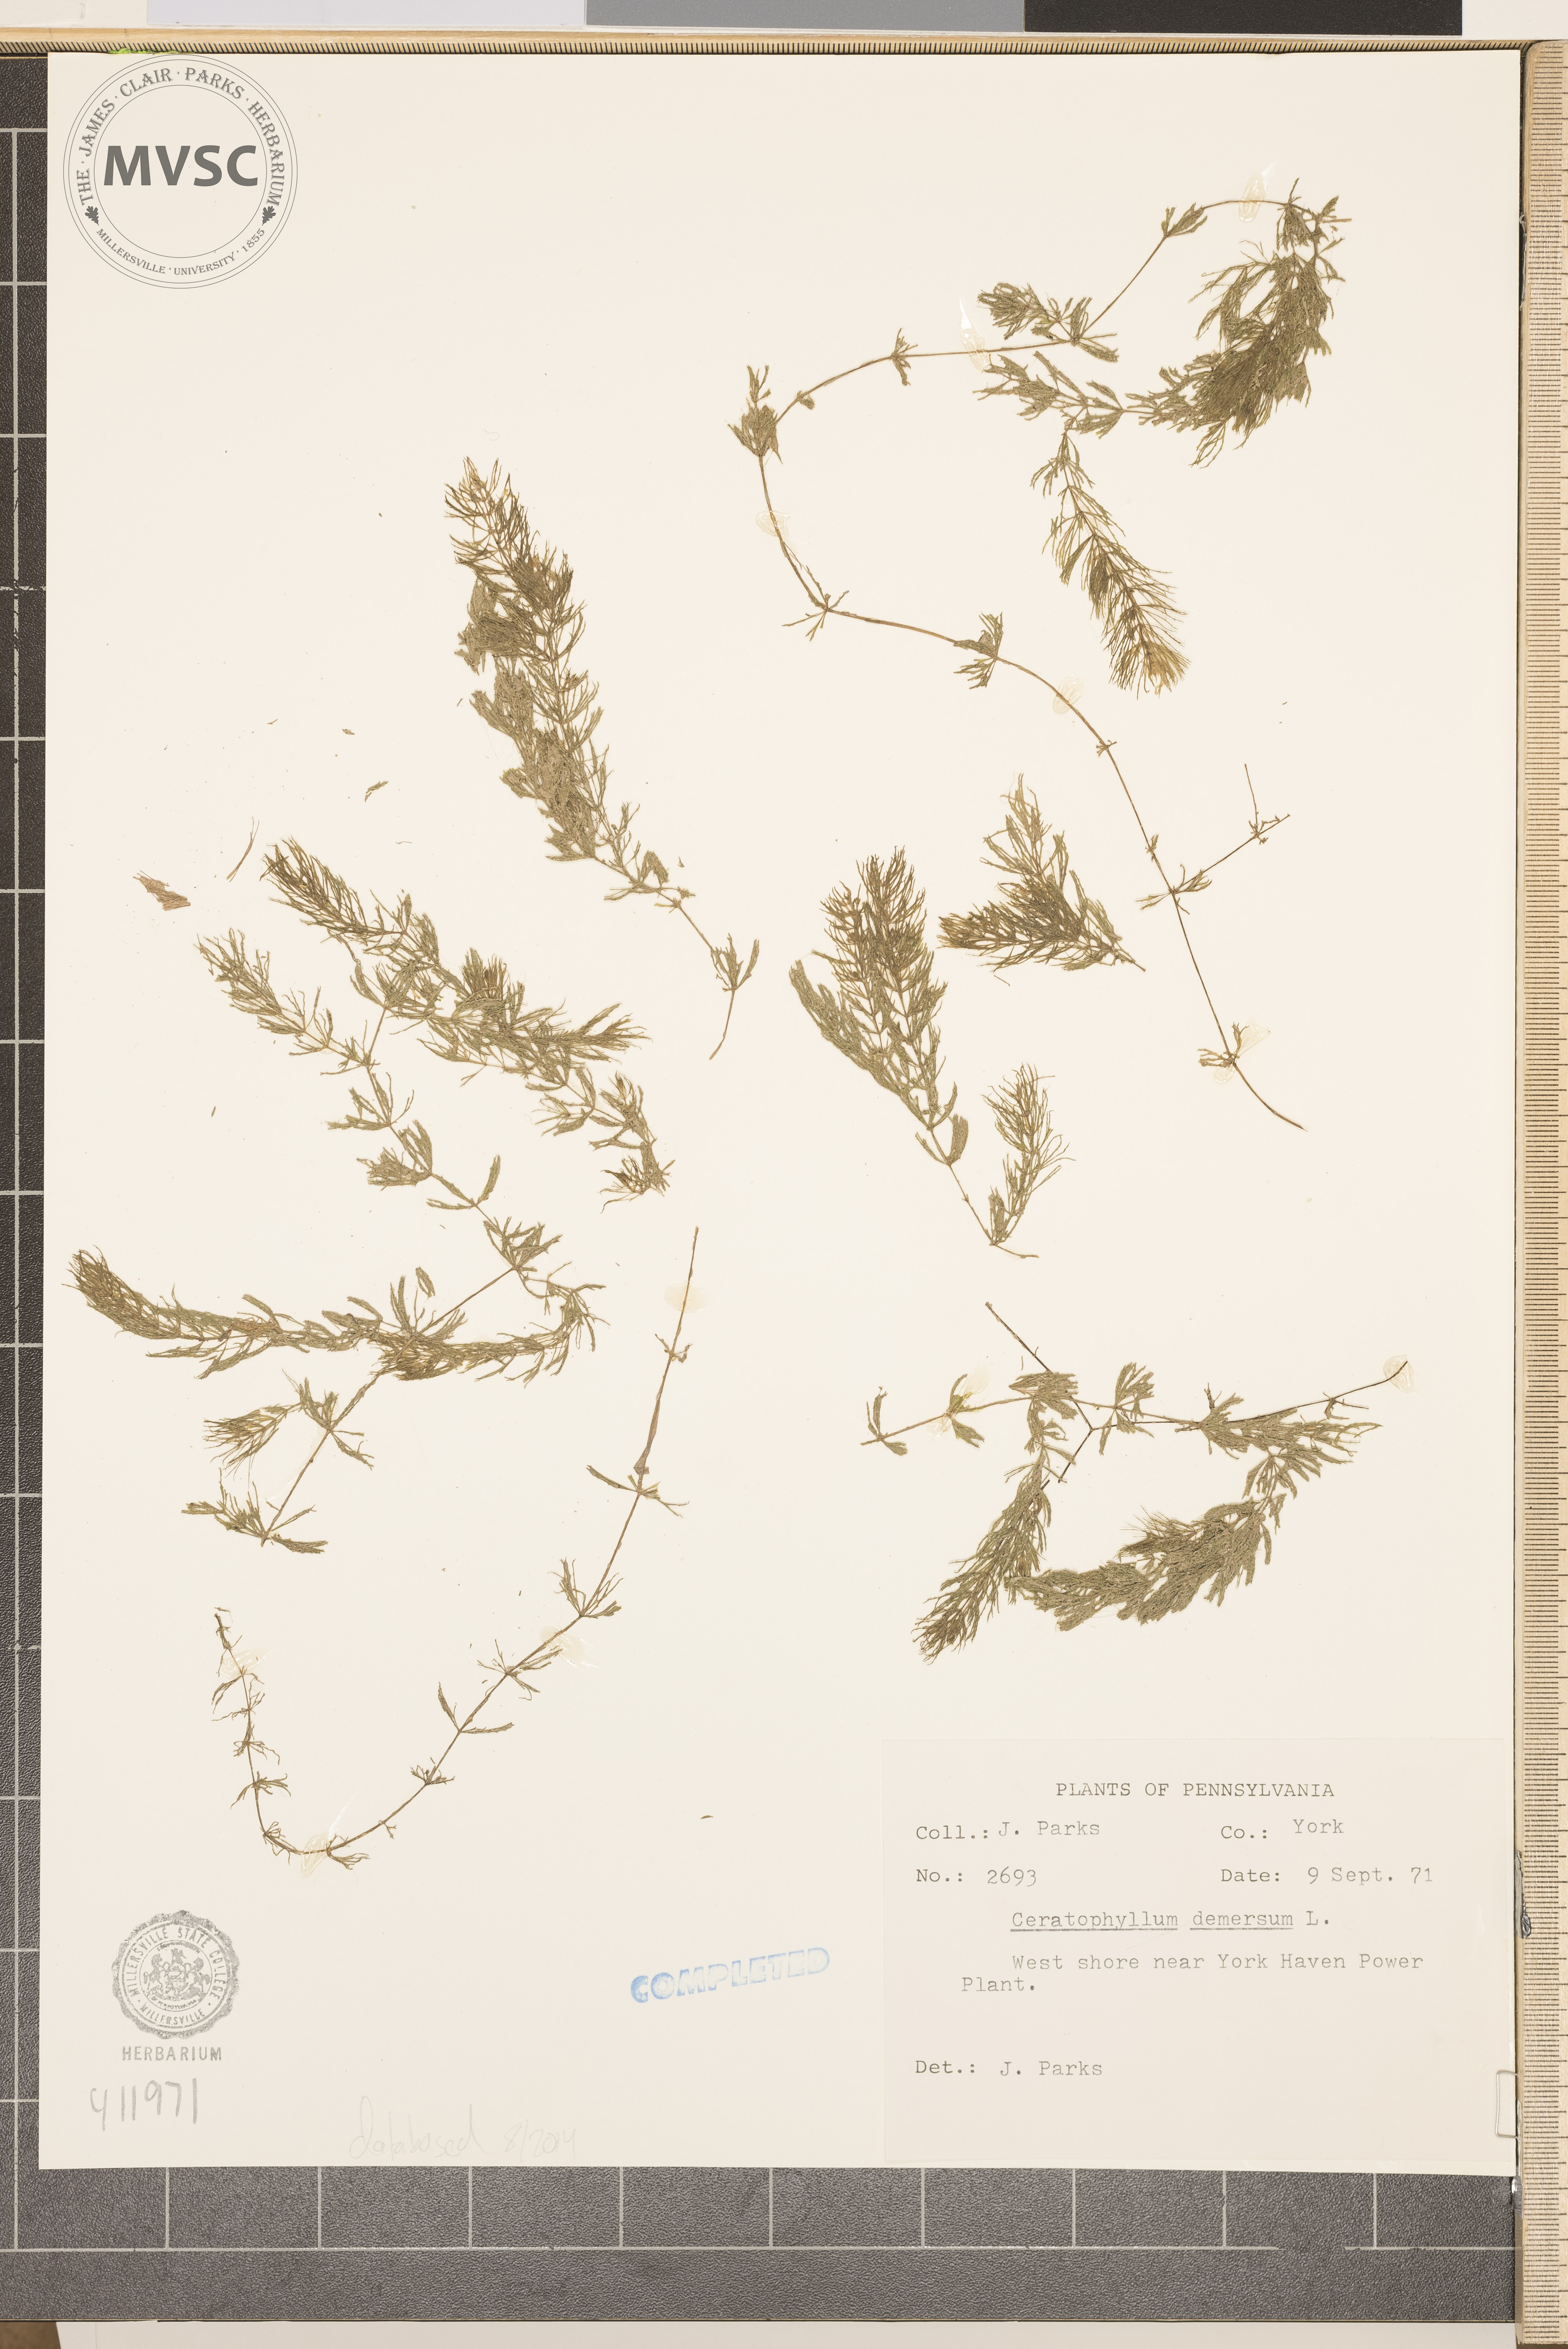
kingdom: Plantae
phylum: Tracheophyta
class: Magnoliopsida
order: Ceratophyllales
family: Ceratophyllaceae
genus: Ceratophyllum
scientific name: Ceratophyllum demersum
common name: Coontail
